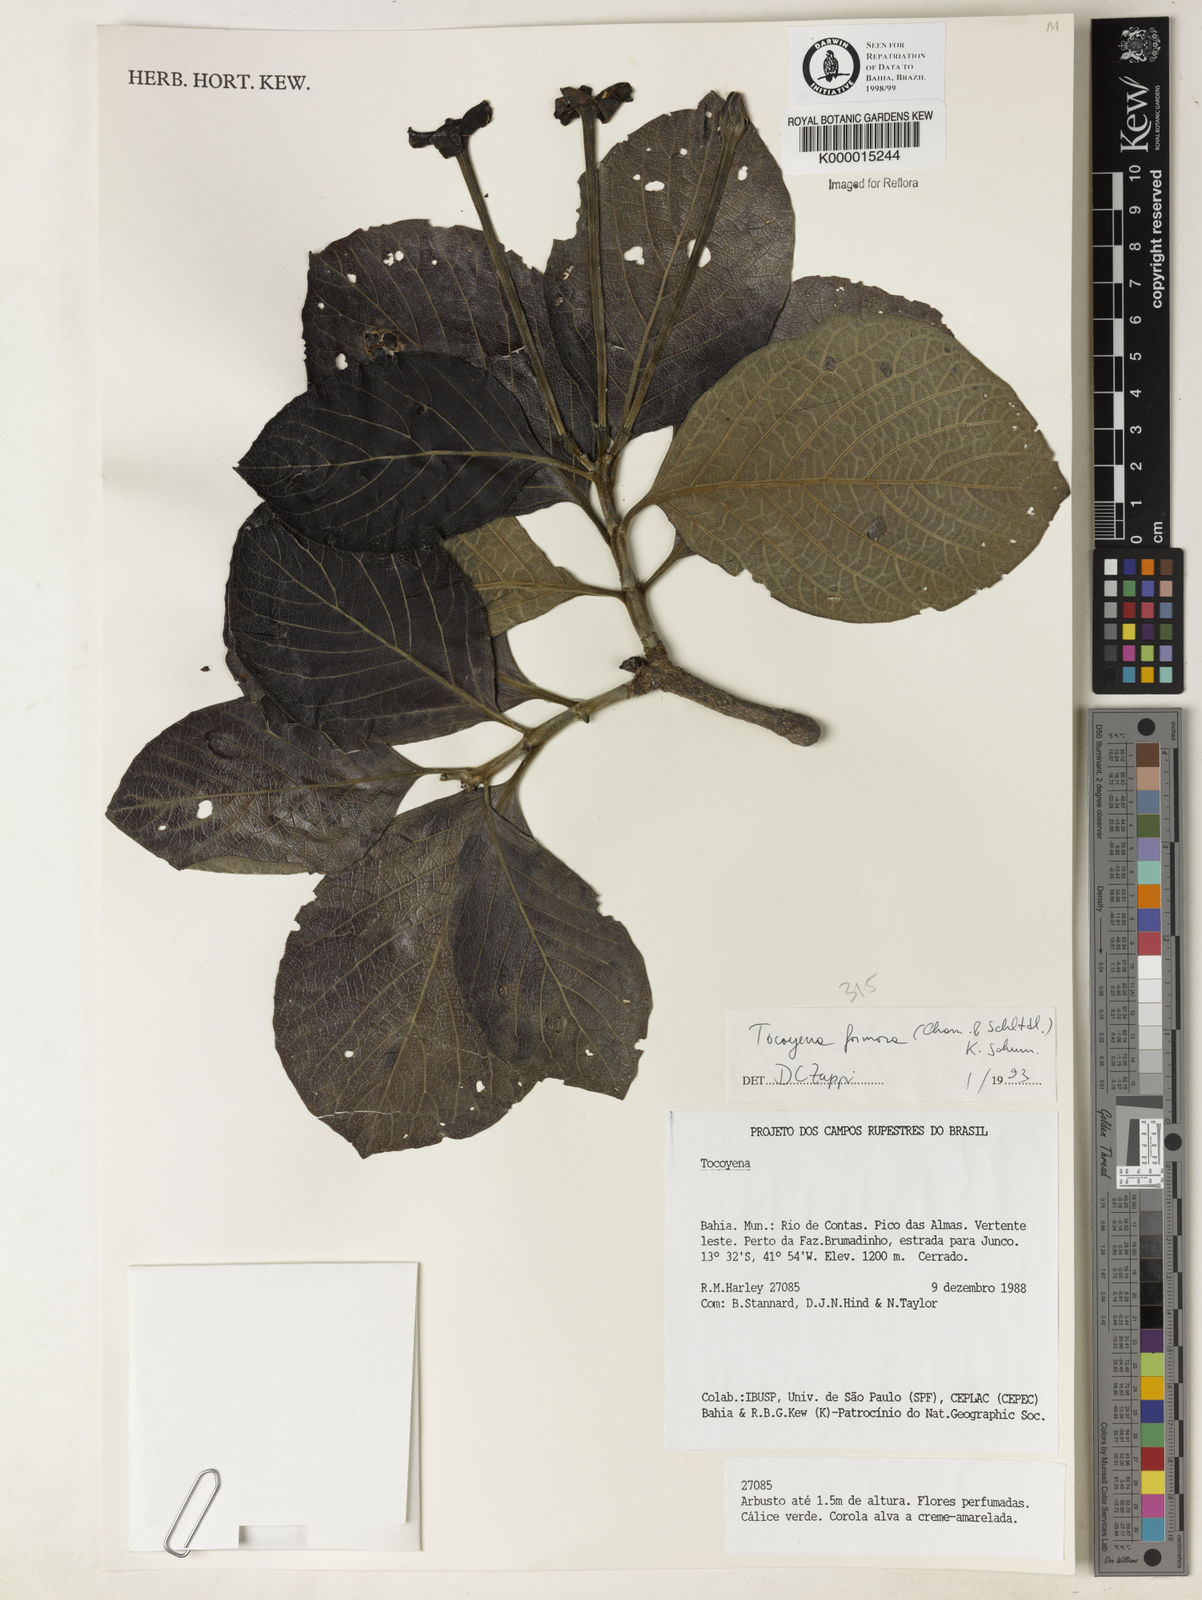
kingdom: Plantae
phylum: Tracheophyta
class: Magnoliopsida
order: Gentianales
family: Rubiaceae
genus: Tocoyena
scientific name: Tocoyena formosa
